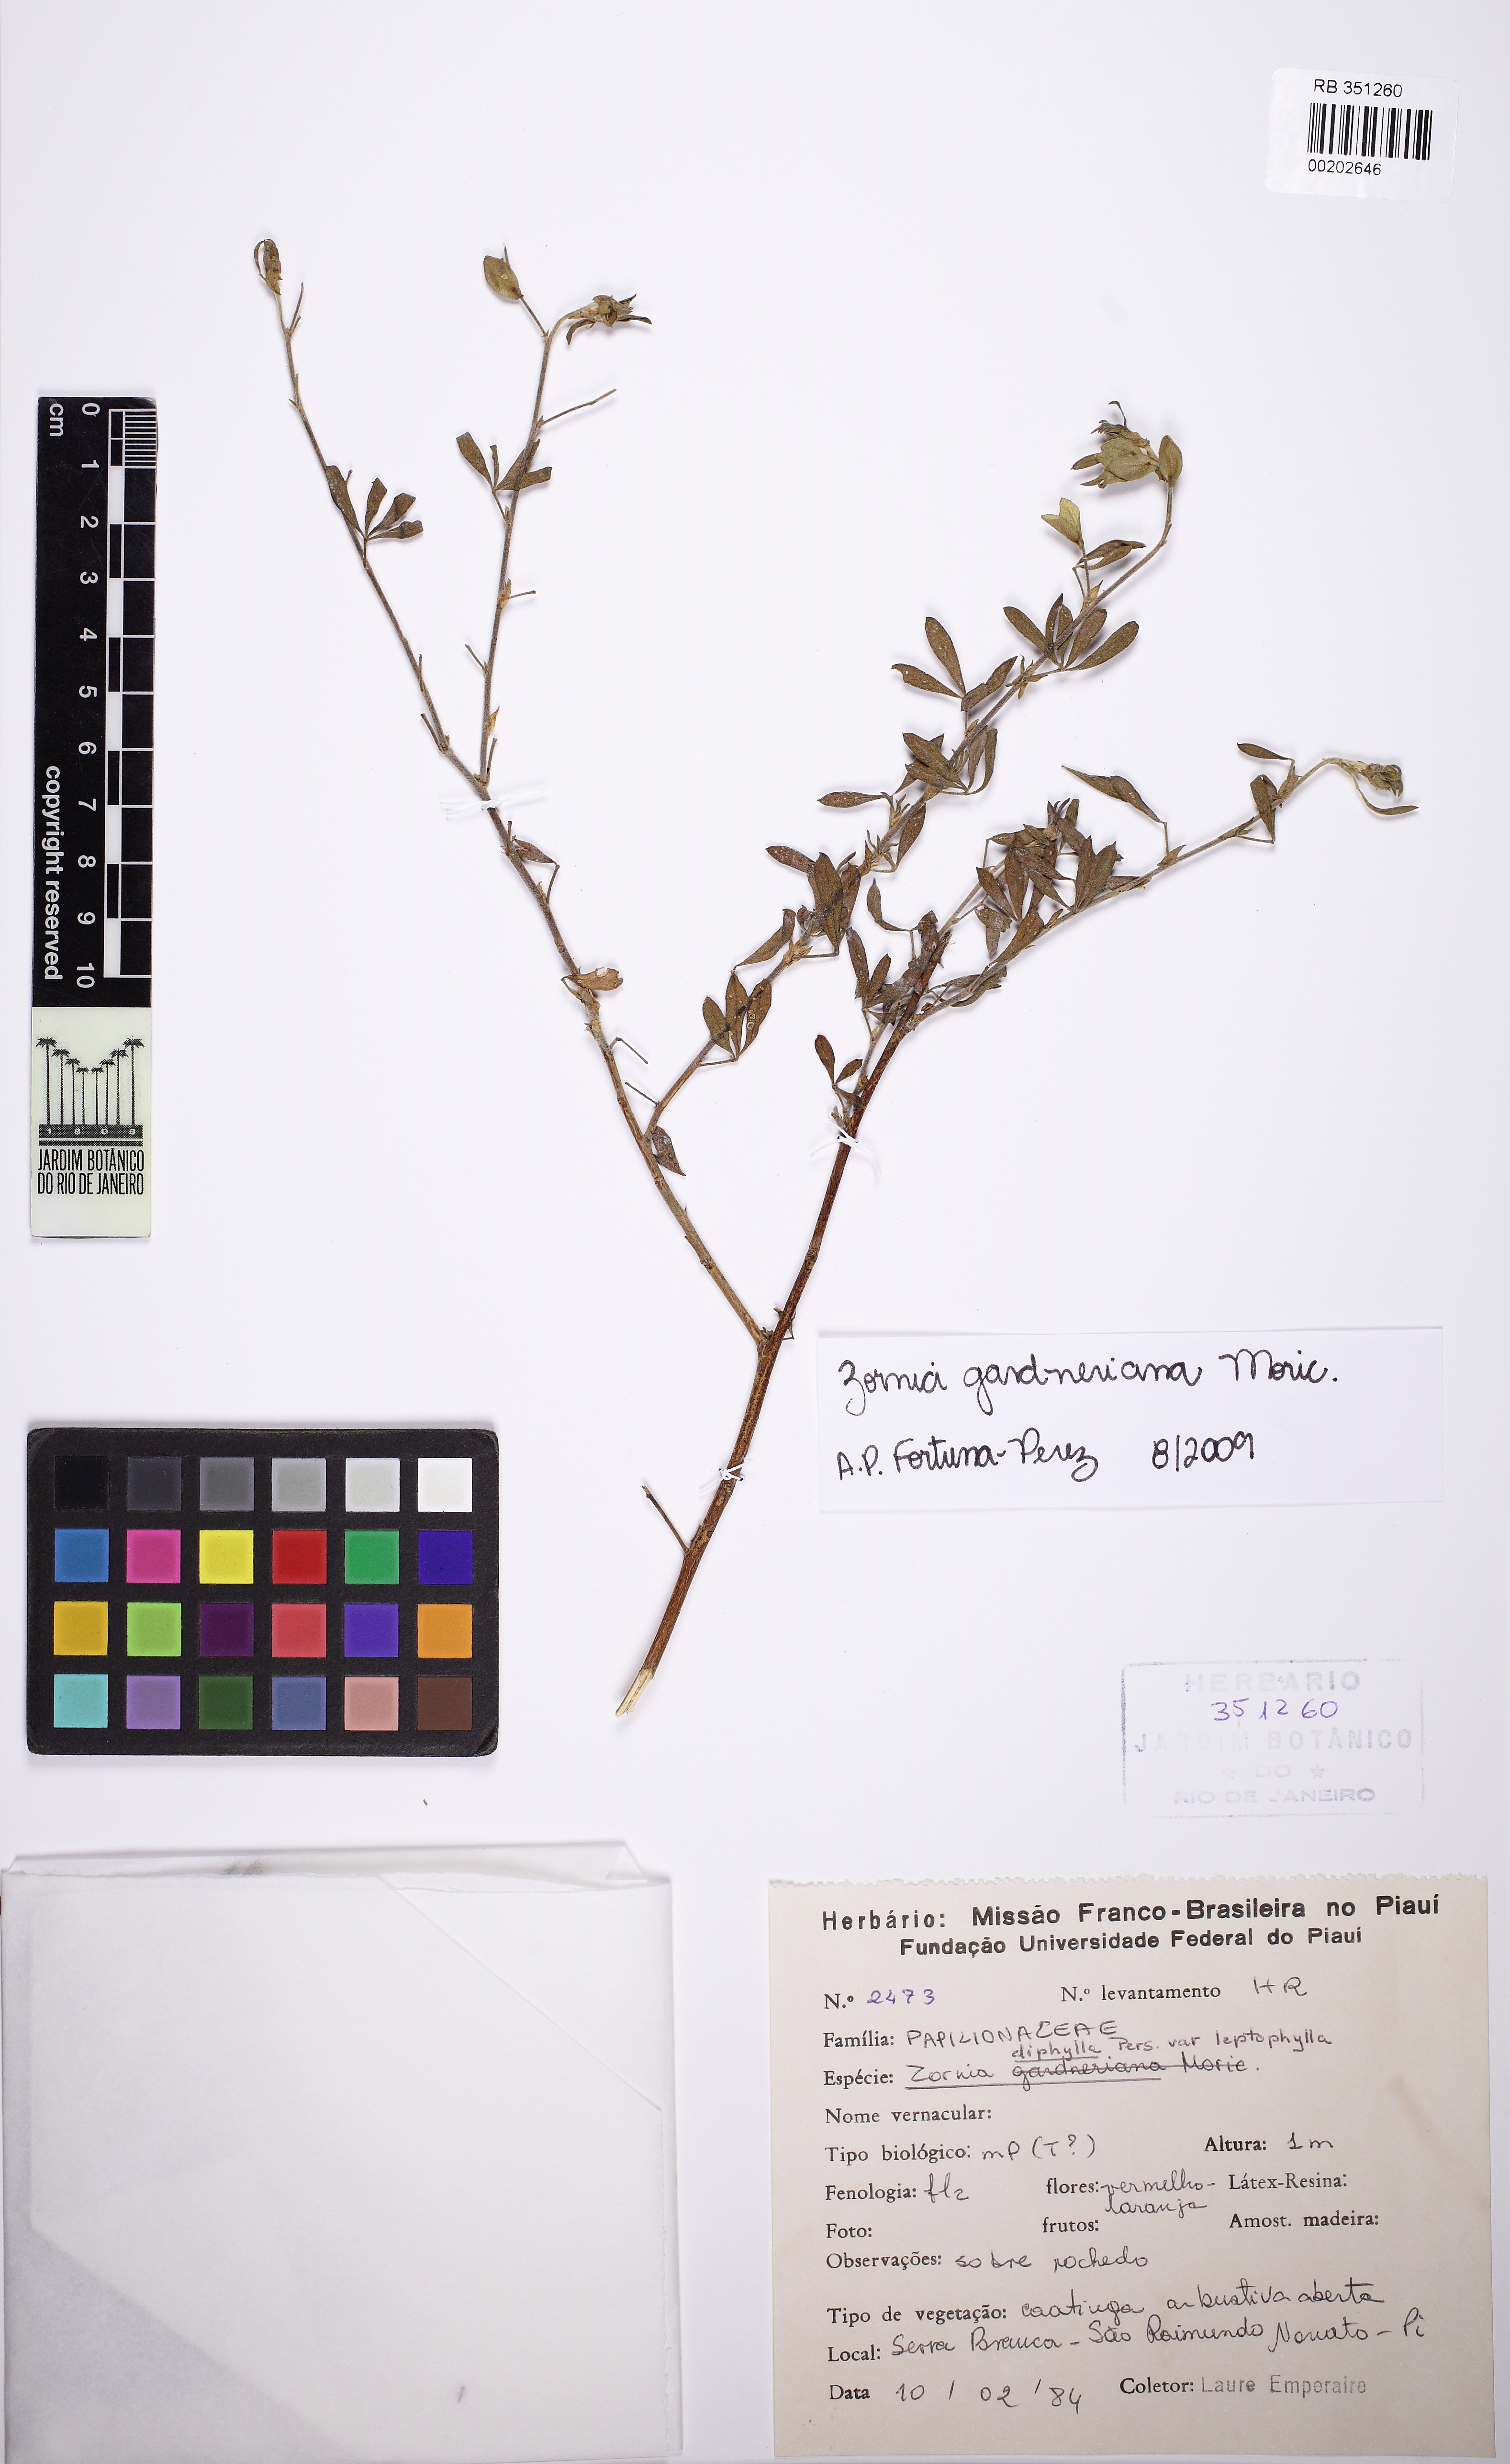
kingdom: Plantae
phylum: Tracheophyta
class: Magnoliopsida
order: Fabales
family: Fabaceae
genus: Zornia
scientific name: Zornia gardneriana
